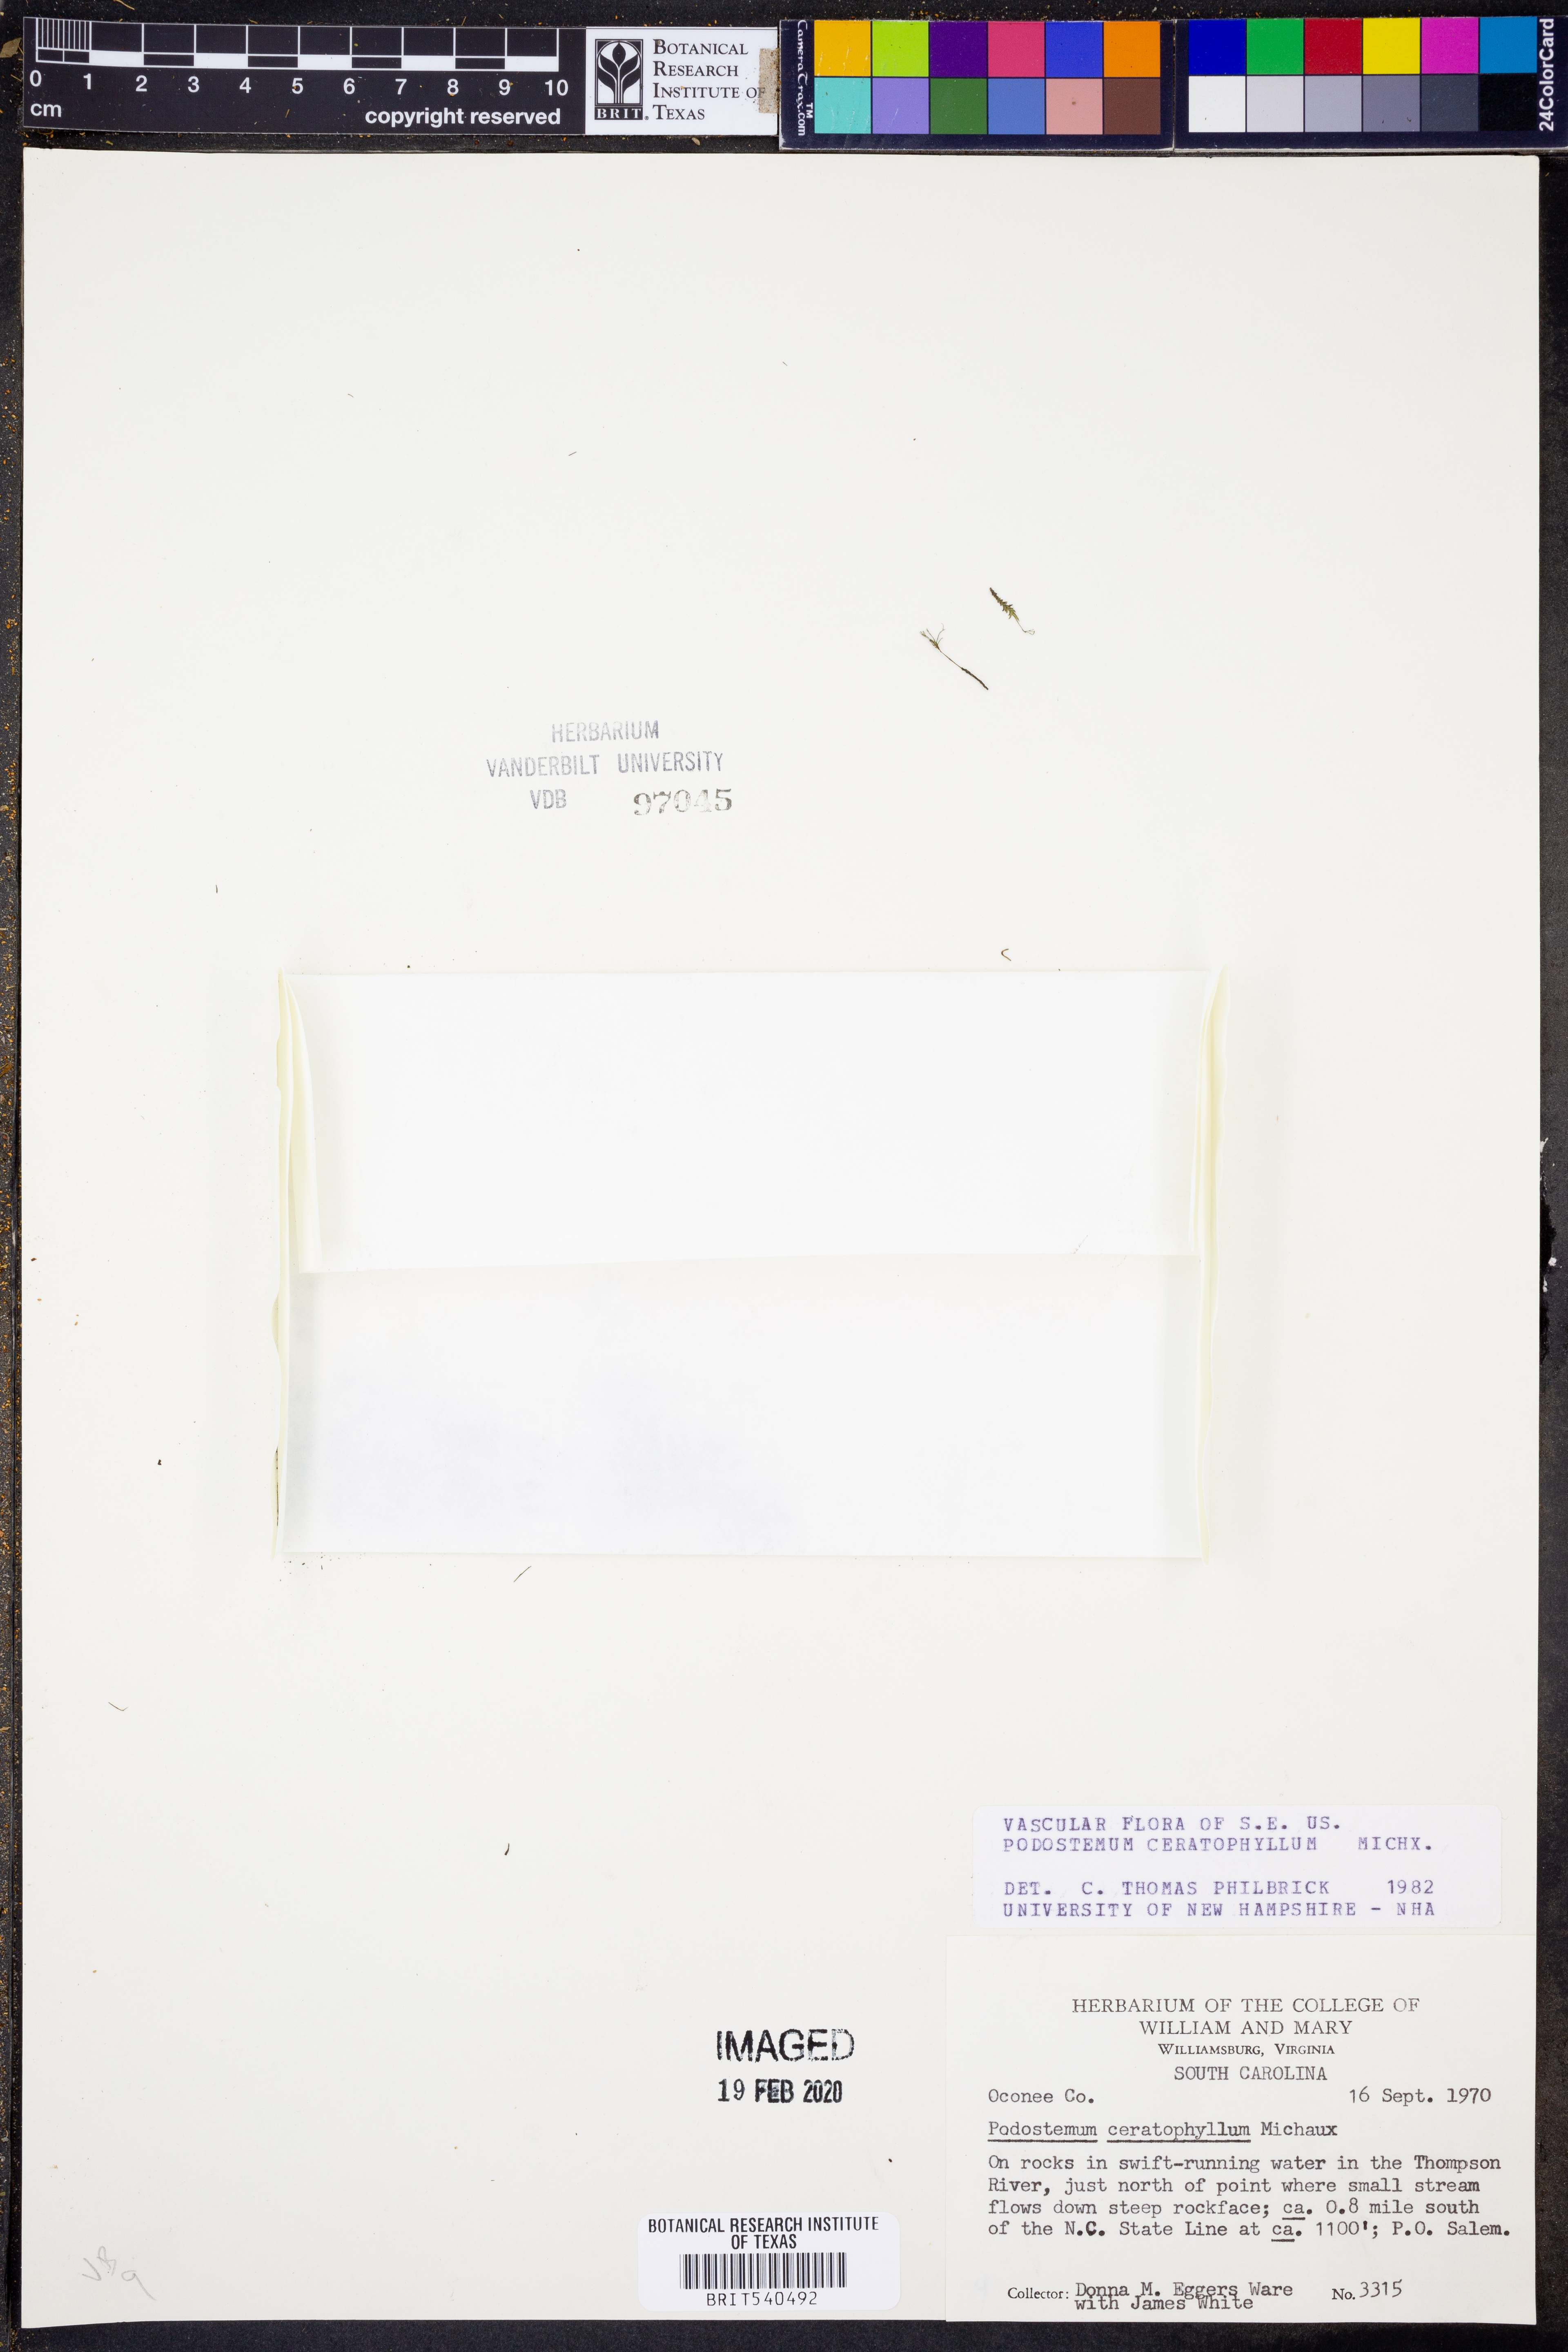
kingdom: Plantae
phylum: Tracheophyta
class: Magnoliopsida
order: Malpighiales
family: Podostemaceae
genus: Podostemum
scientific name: Podostemum ceratophyllum
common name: Horn-leaved riverweed
